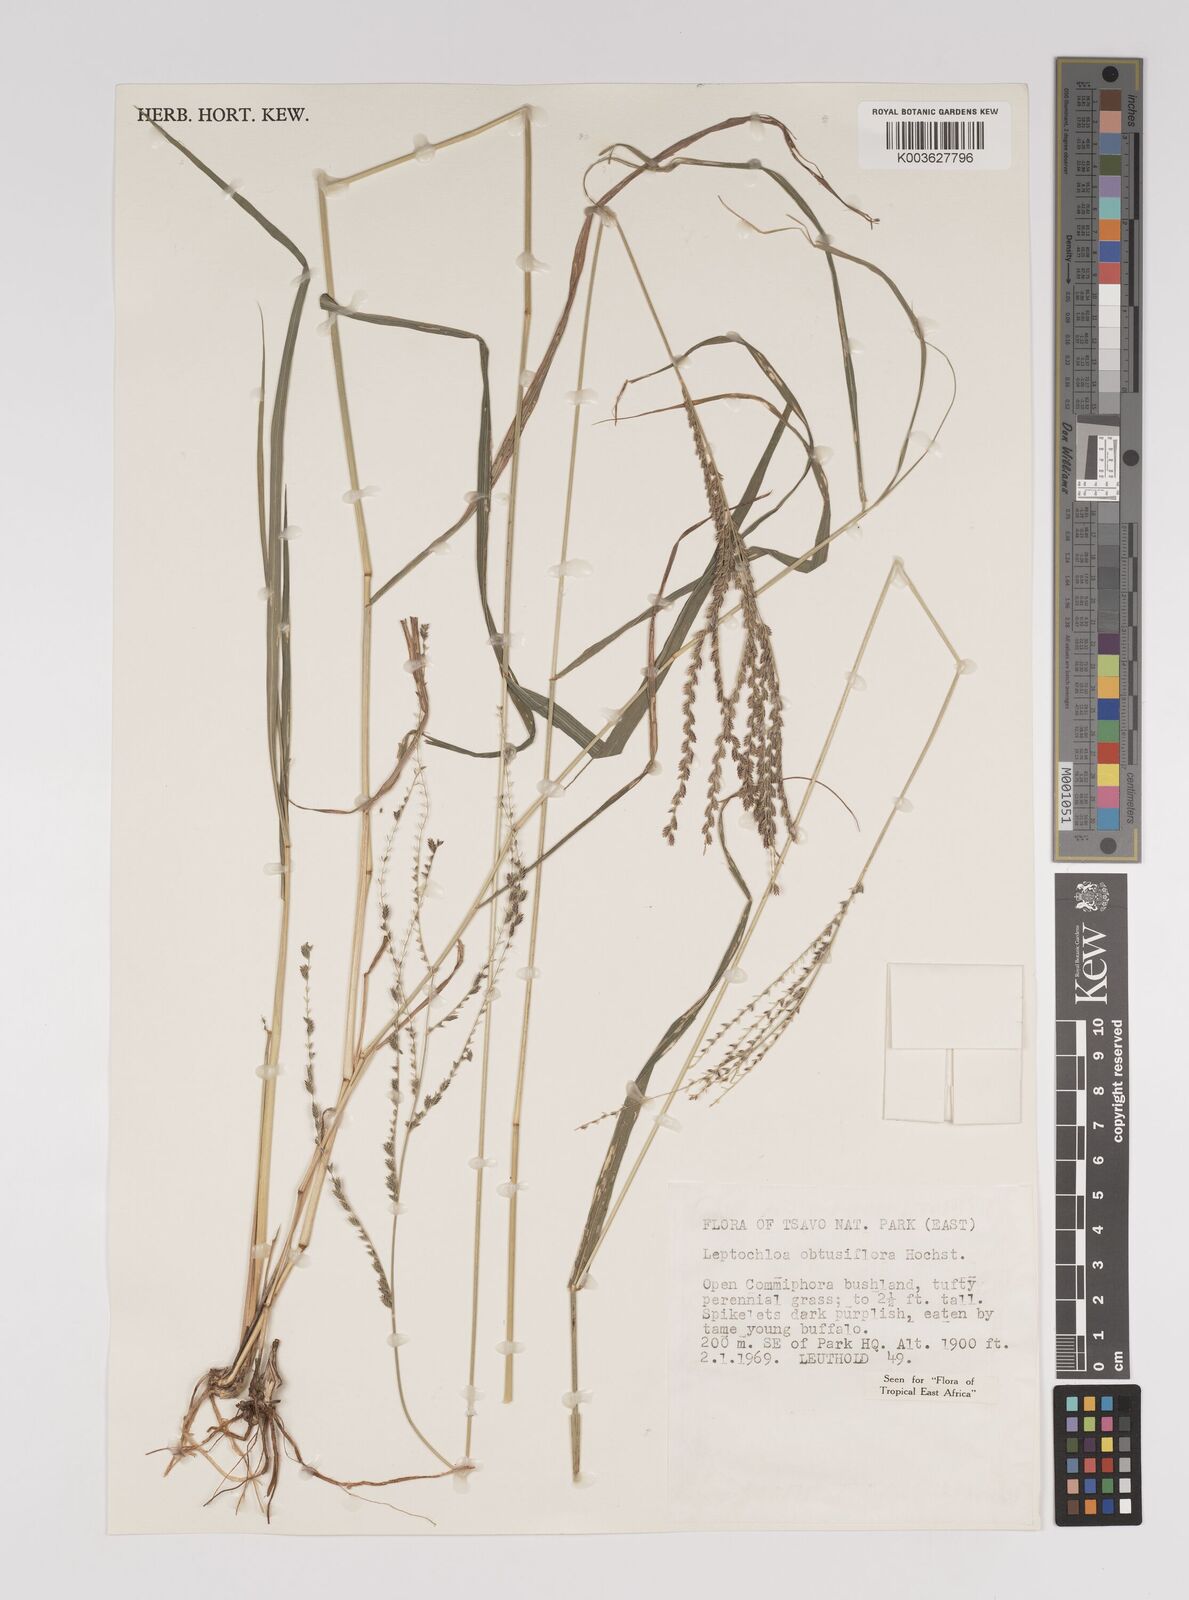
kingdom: Plantae
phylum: Tracheophyta
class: Liliopsida
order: Poales
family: Poaceae
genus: Disakisperma
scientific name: Disakisperma obtusiflorum
